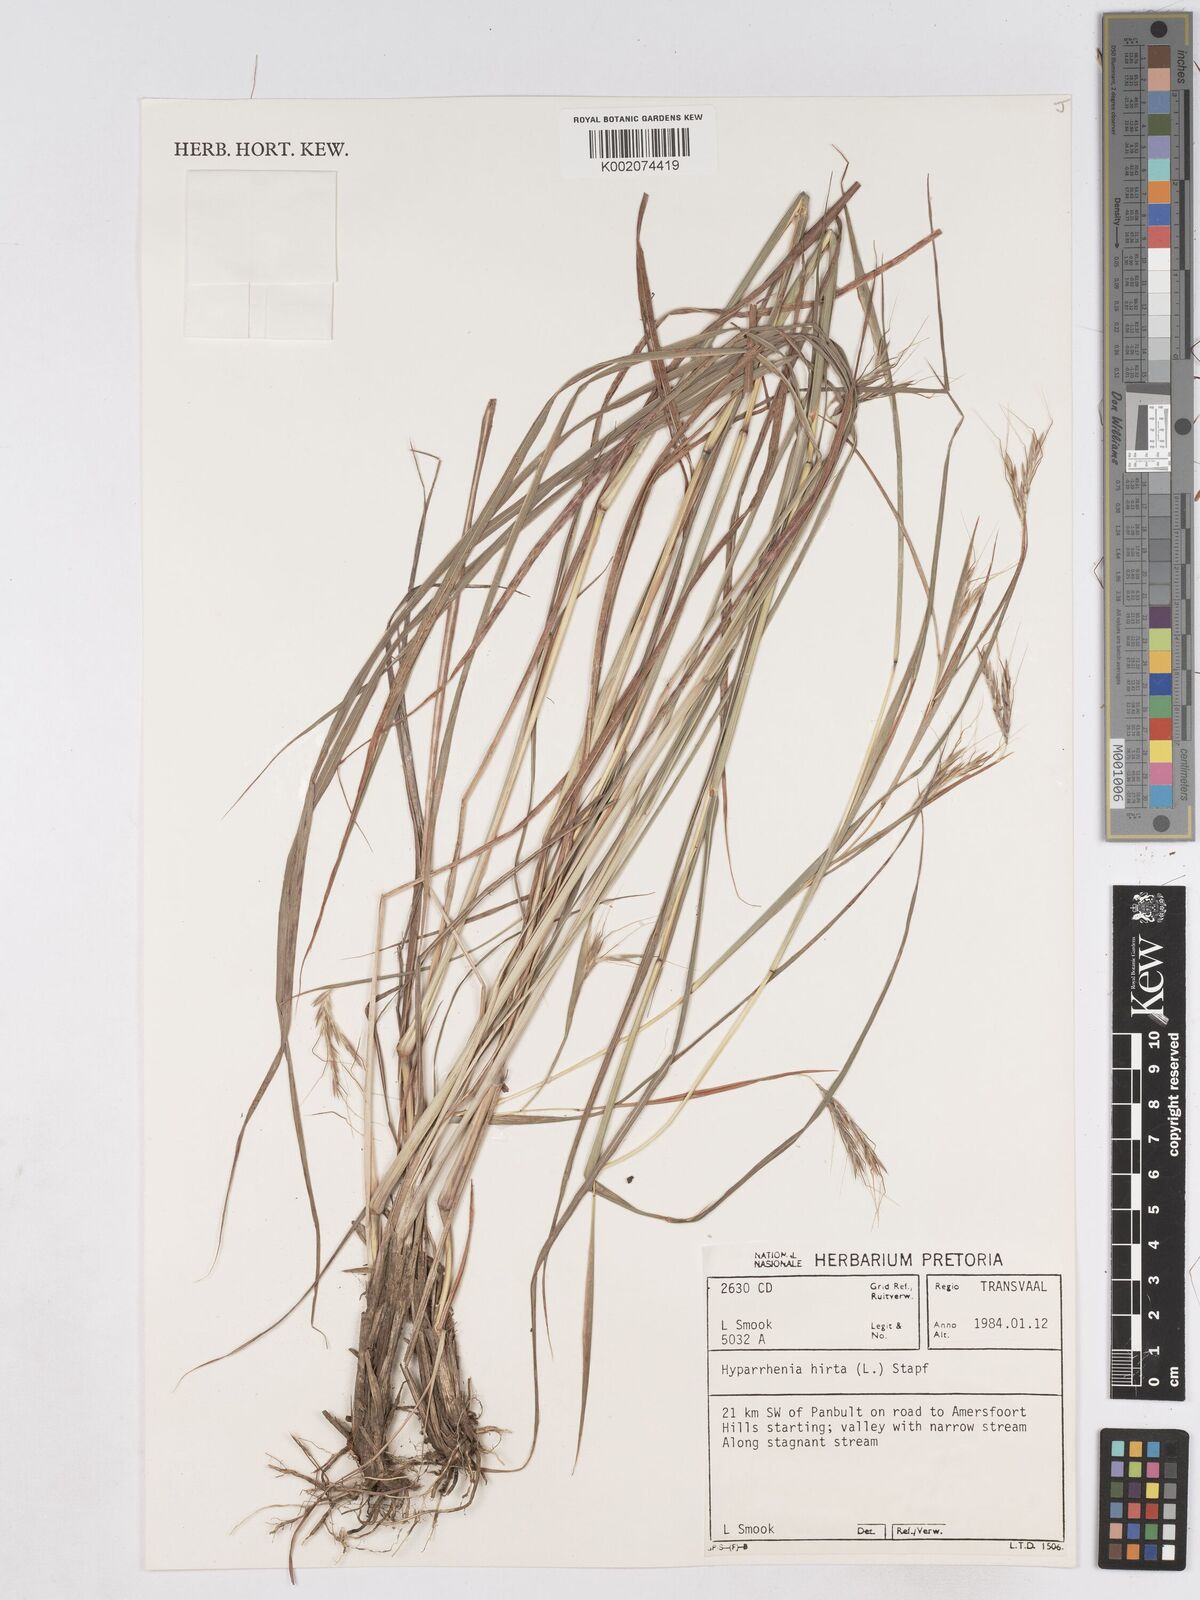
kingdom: Plantae
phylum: Tracheophyta
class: Liliopsida
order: Poales
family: Poaceae
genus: Hyparrhenia
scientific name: Hyparrhenia hirta
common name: Thatching grass
